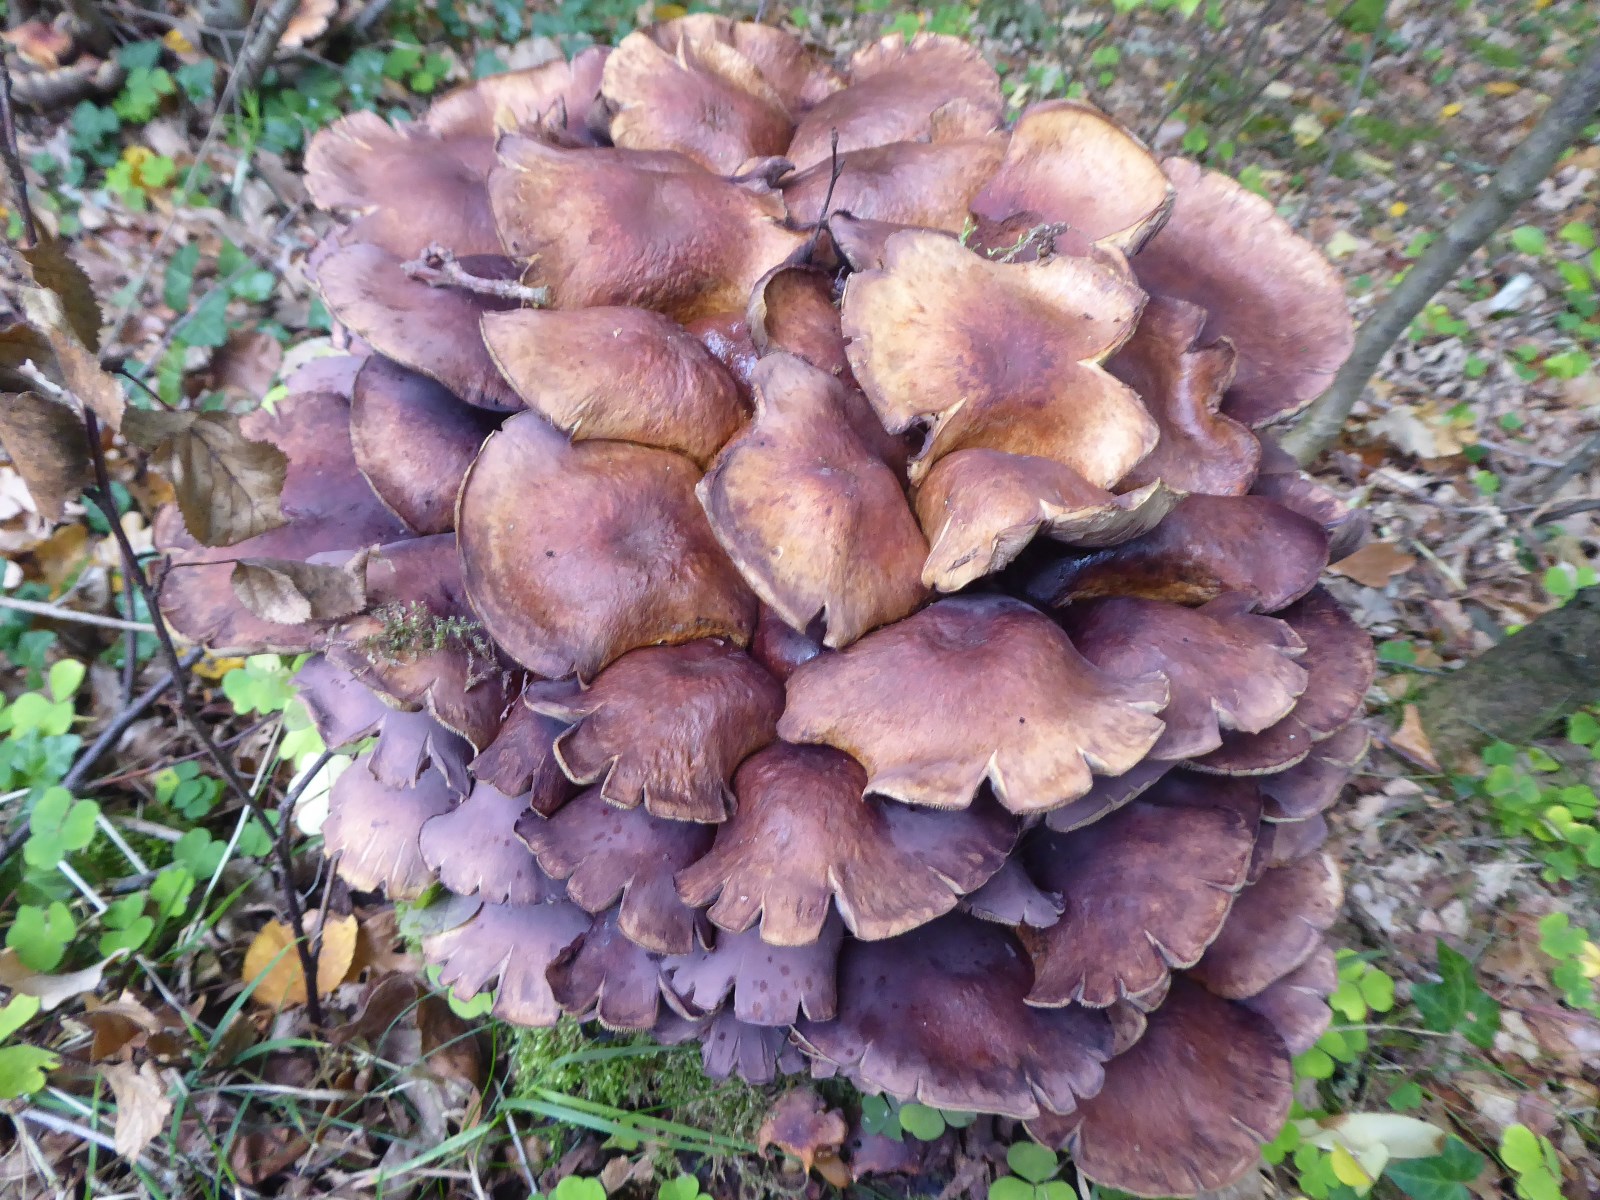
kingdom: Fungi
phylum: Basidiomycota
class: Agaricomycetes
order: Agaricales
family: Strophariaceae
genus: Hypholoma
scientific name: Hypholoma lateritium
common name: teglrød svovlhat
